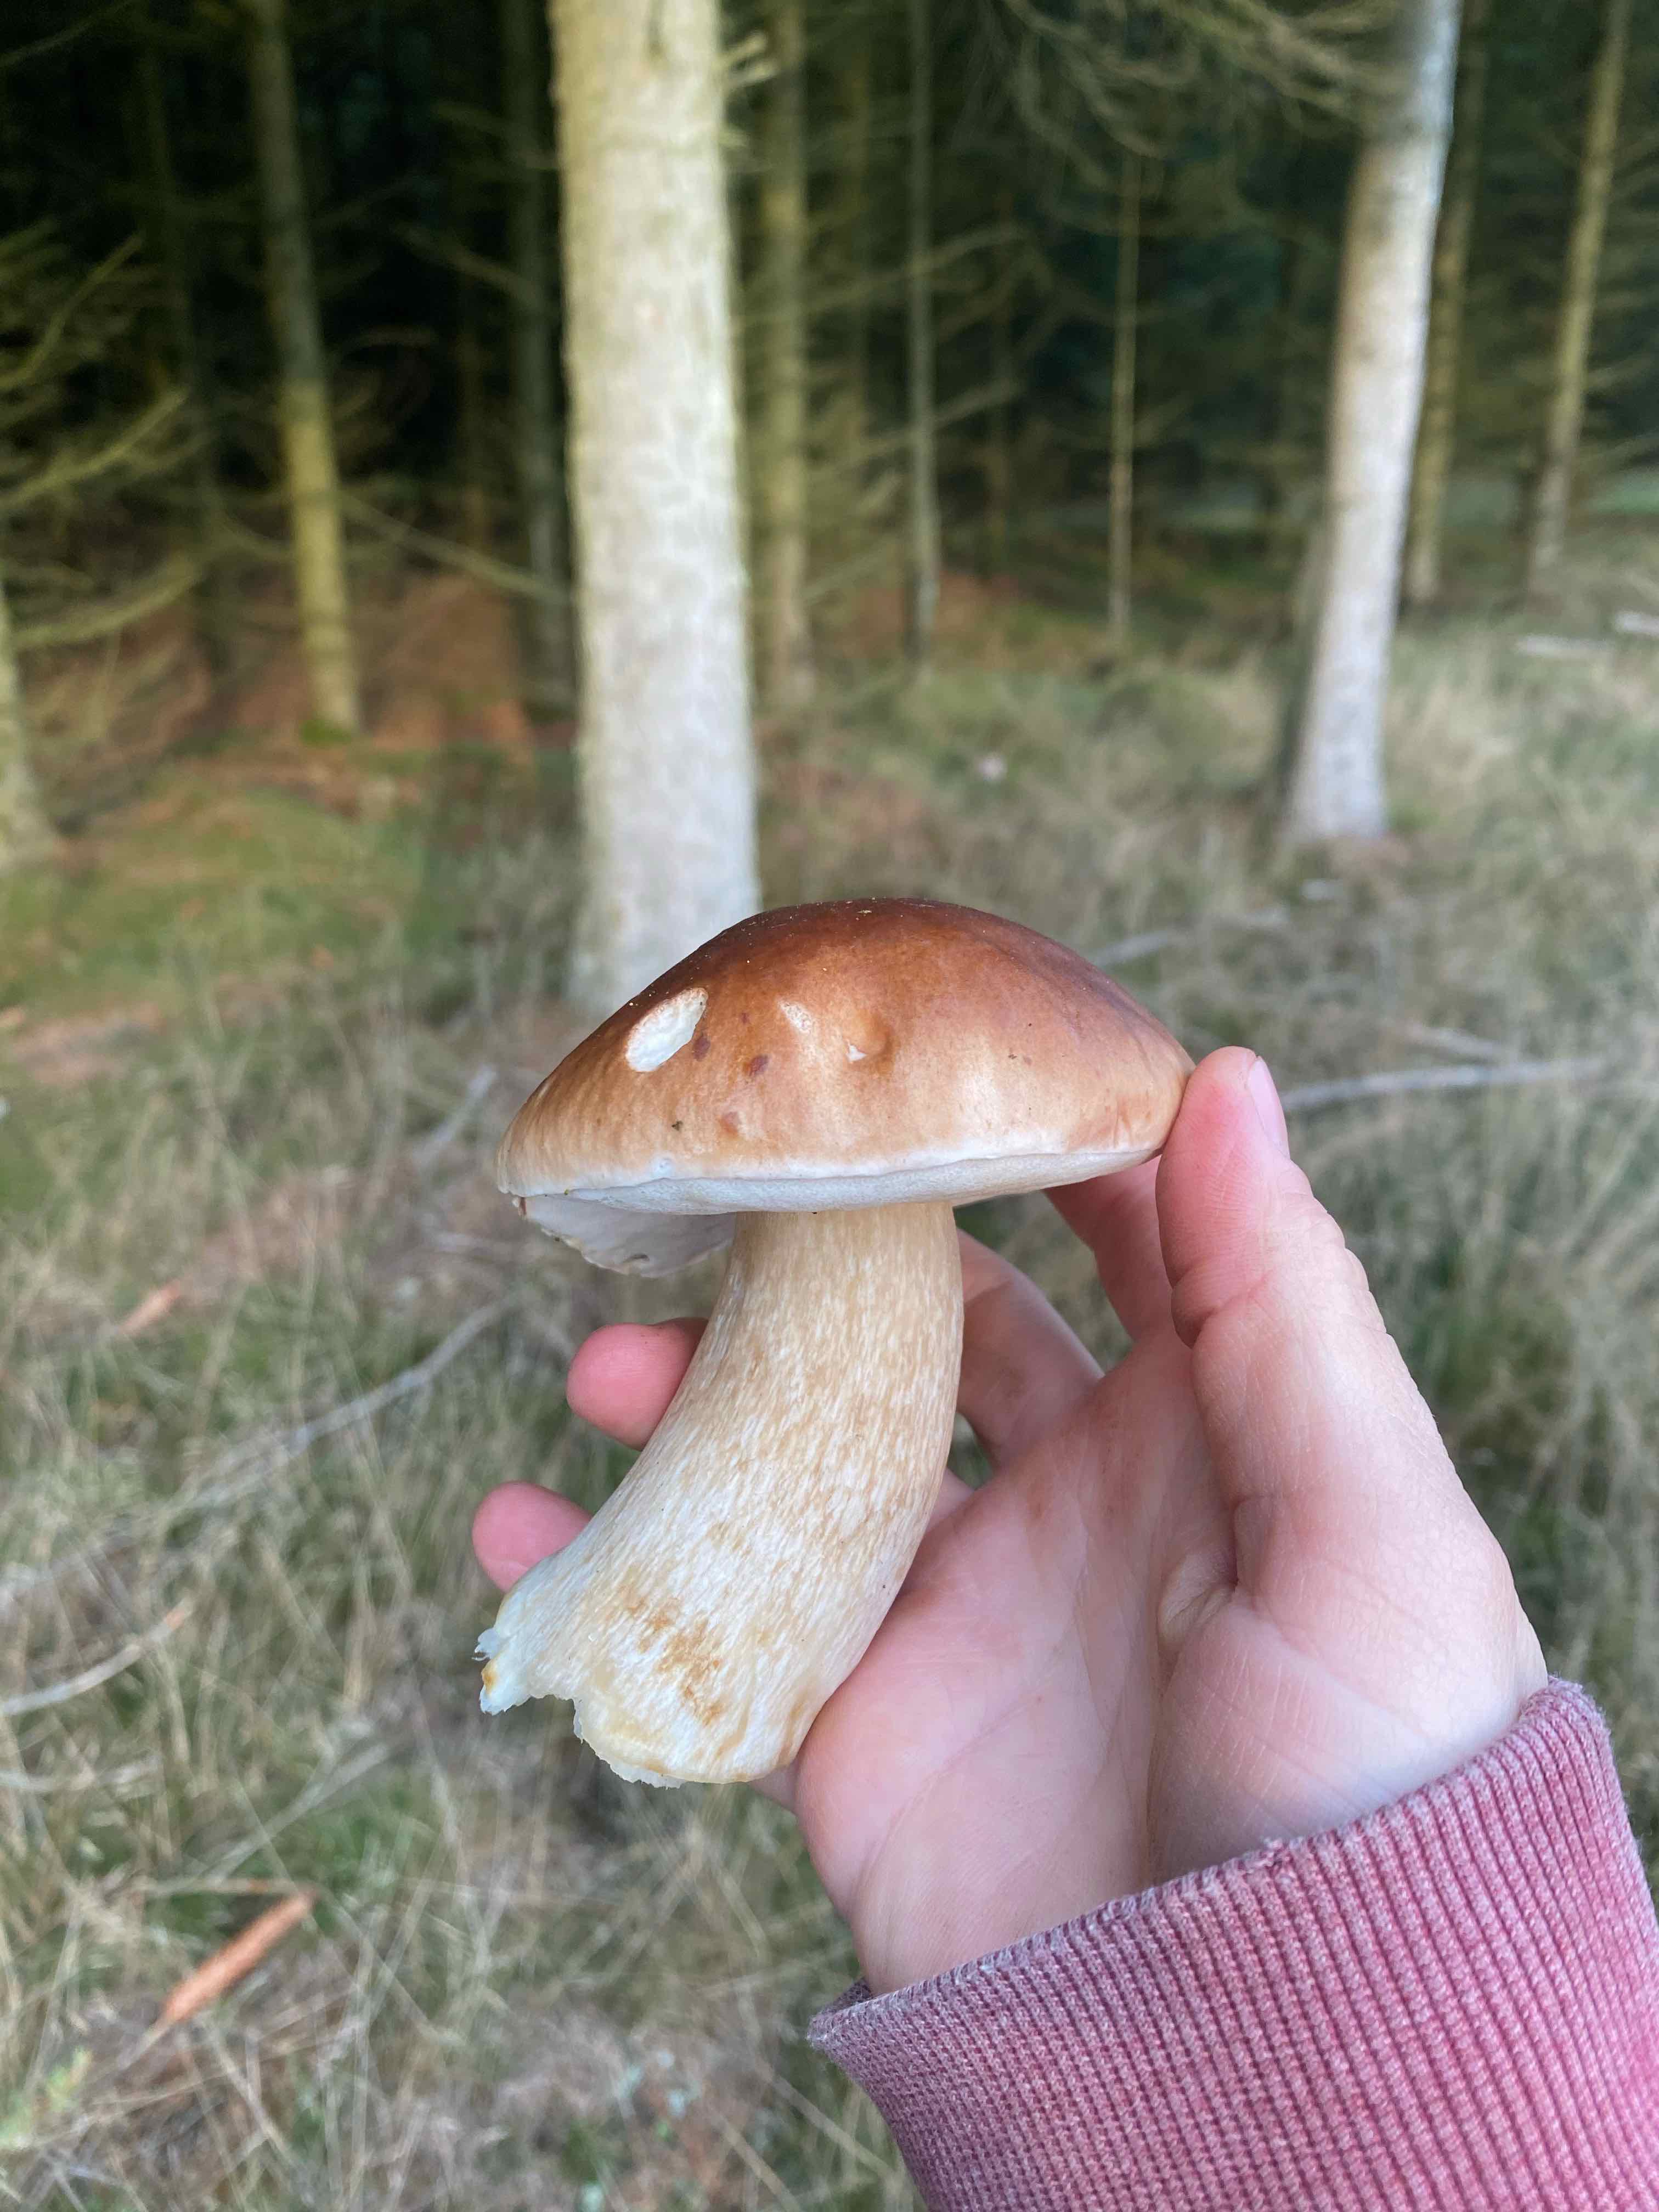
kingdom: Fungi
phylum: Basidiomycota
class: Agaricomycetes
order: Boletales
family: Boletaceae
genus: Boletus
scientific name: Boletus edulis
